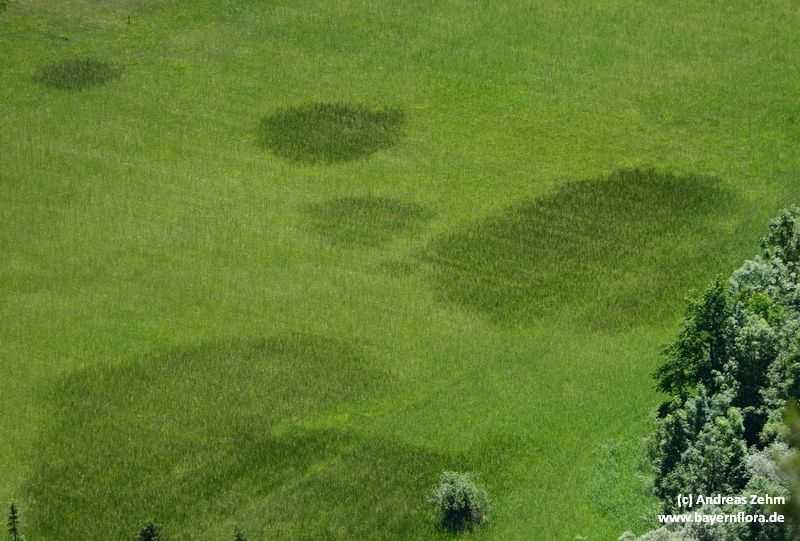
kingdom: Plantae
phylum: Tracheophyta
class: Liliopsida
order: Poales
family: Juncaceae
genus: Juncus
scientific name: Juncus subnodulosus
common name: Blunt-flowered rush
